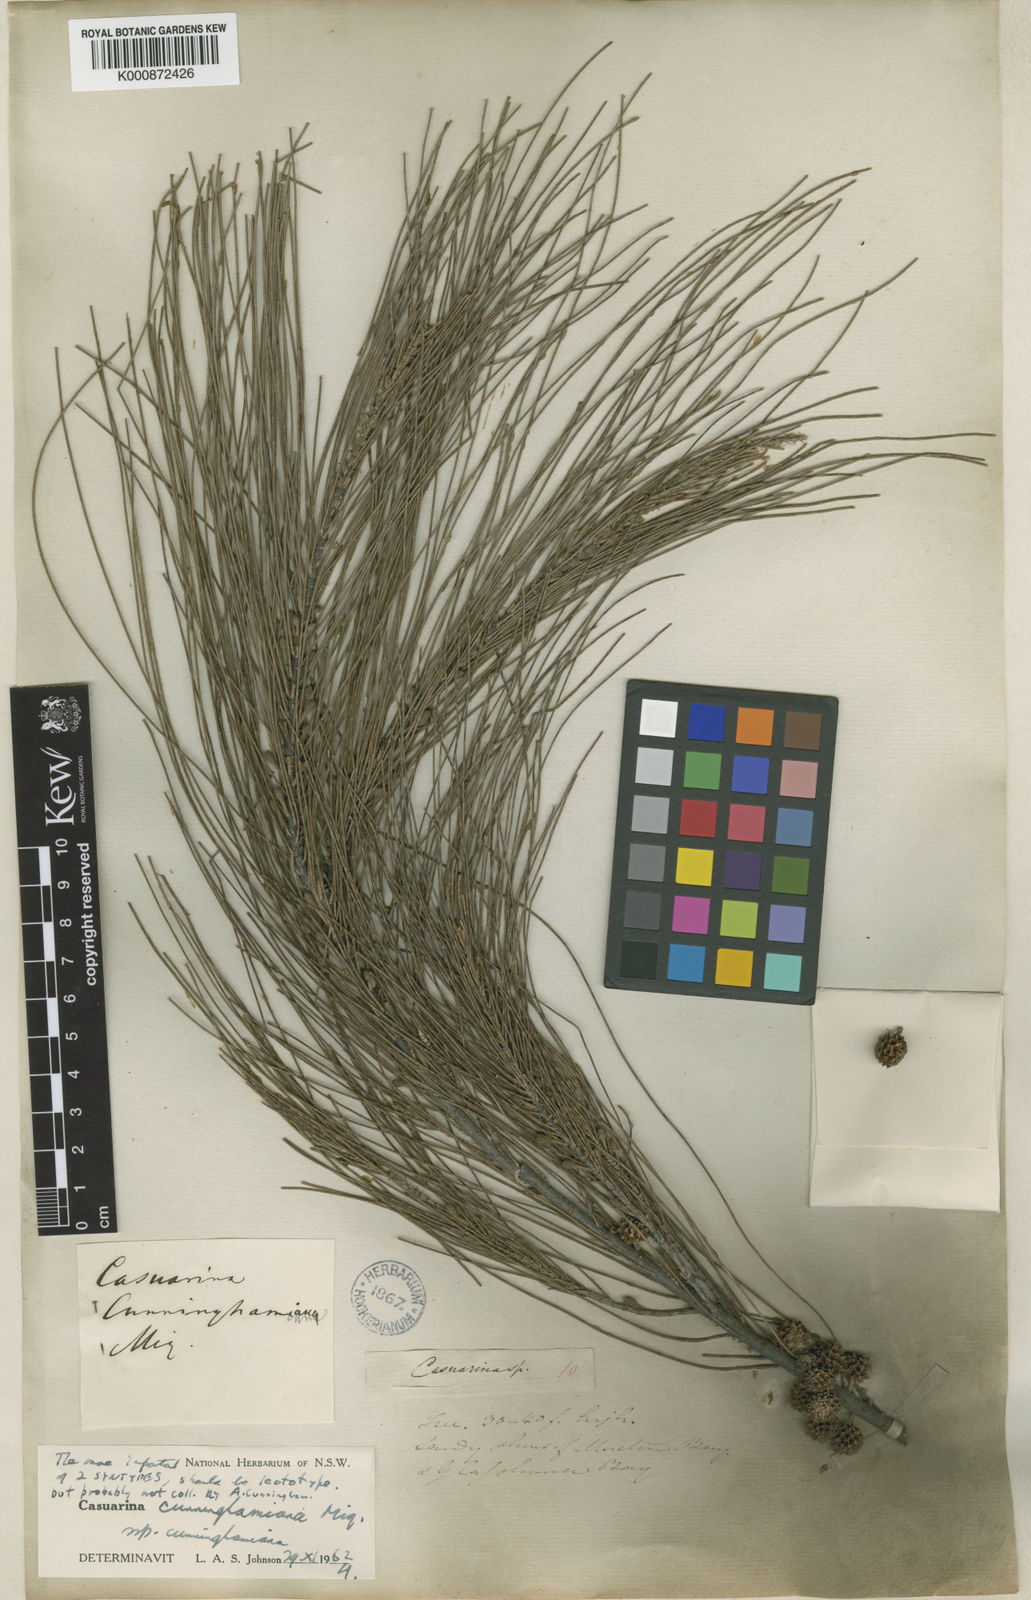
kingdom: Plantae
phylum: Tracheophyta
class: Magnoliopsida
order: Fagales
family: Casuarinaceae
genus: Casuarina
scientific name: Casuarina cunninghamiana
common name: River sheoak
